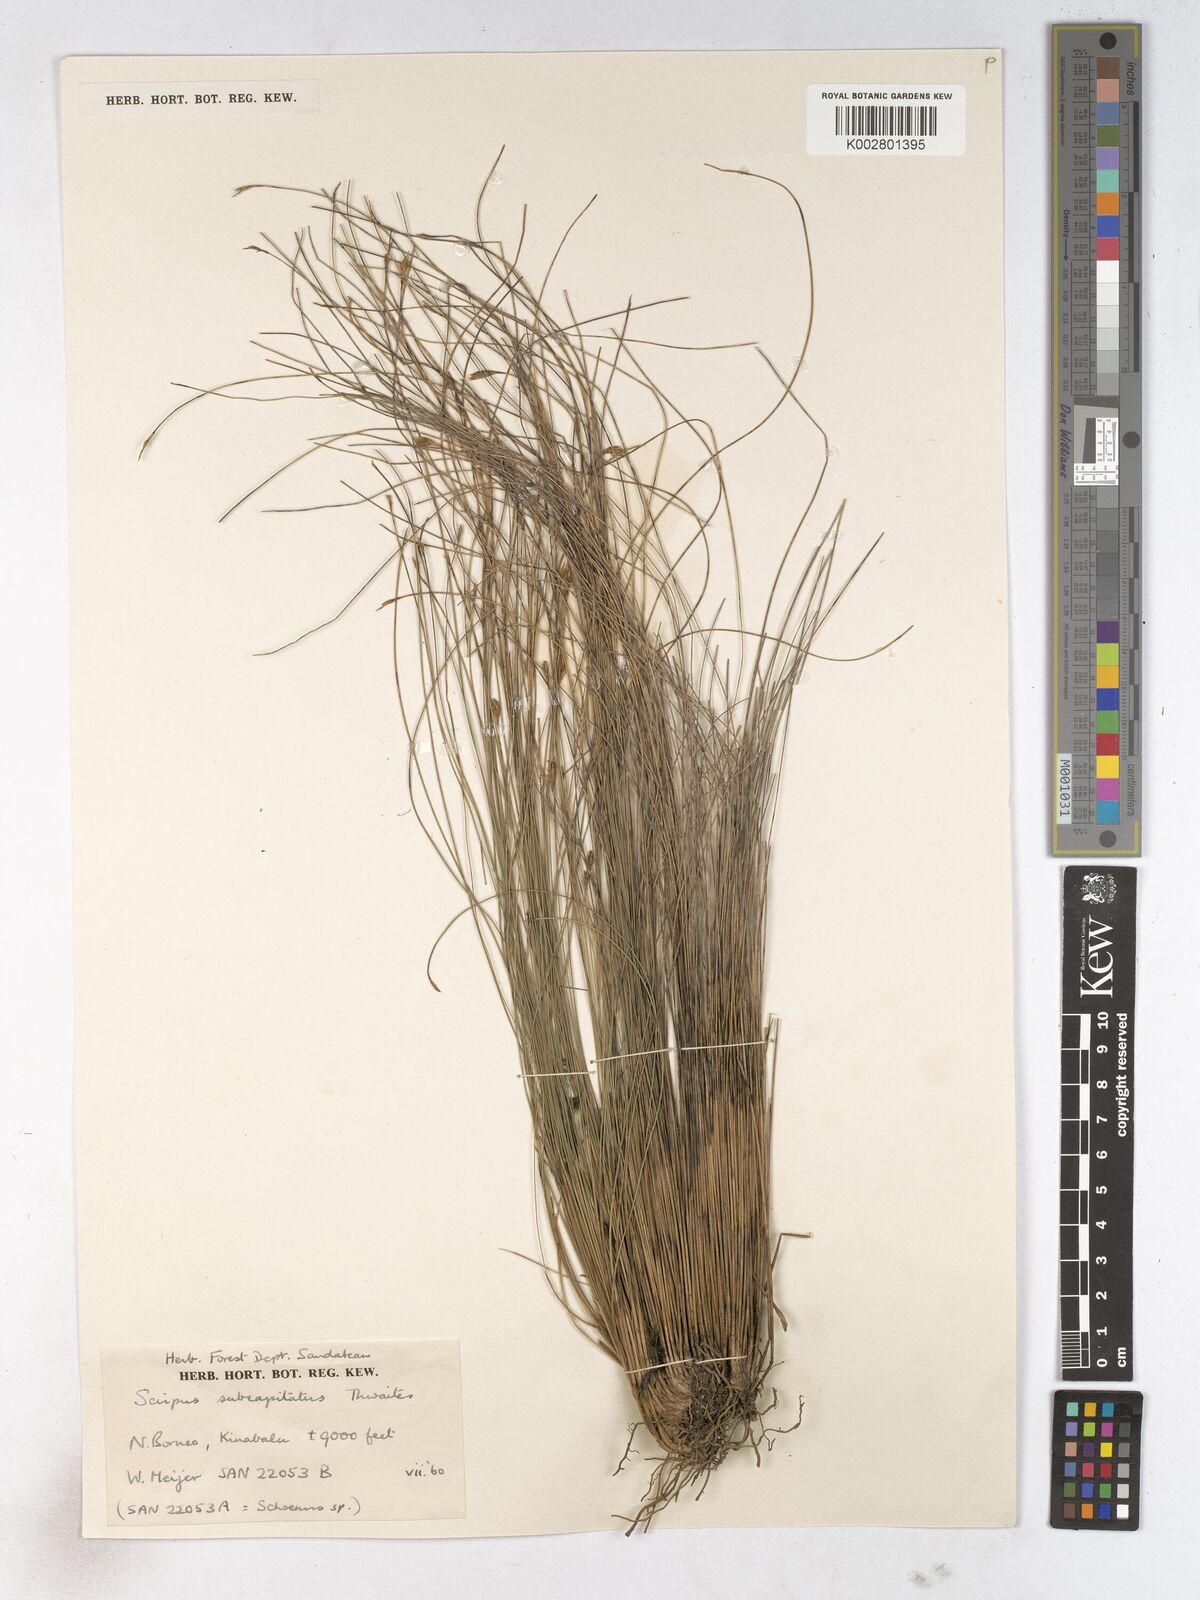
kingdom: Plantae
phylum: Tracheophyta
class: Liliopsida
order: Poales
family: Cyperaceae
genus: Trichophorum
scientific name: Trichophorum subcapitatum
